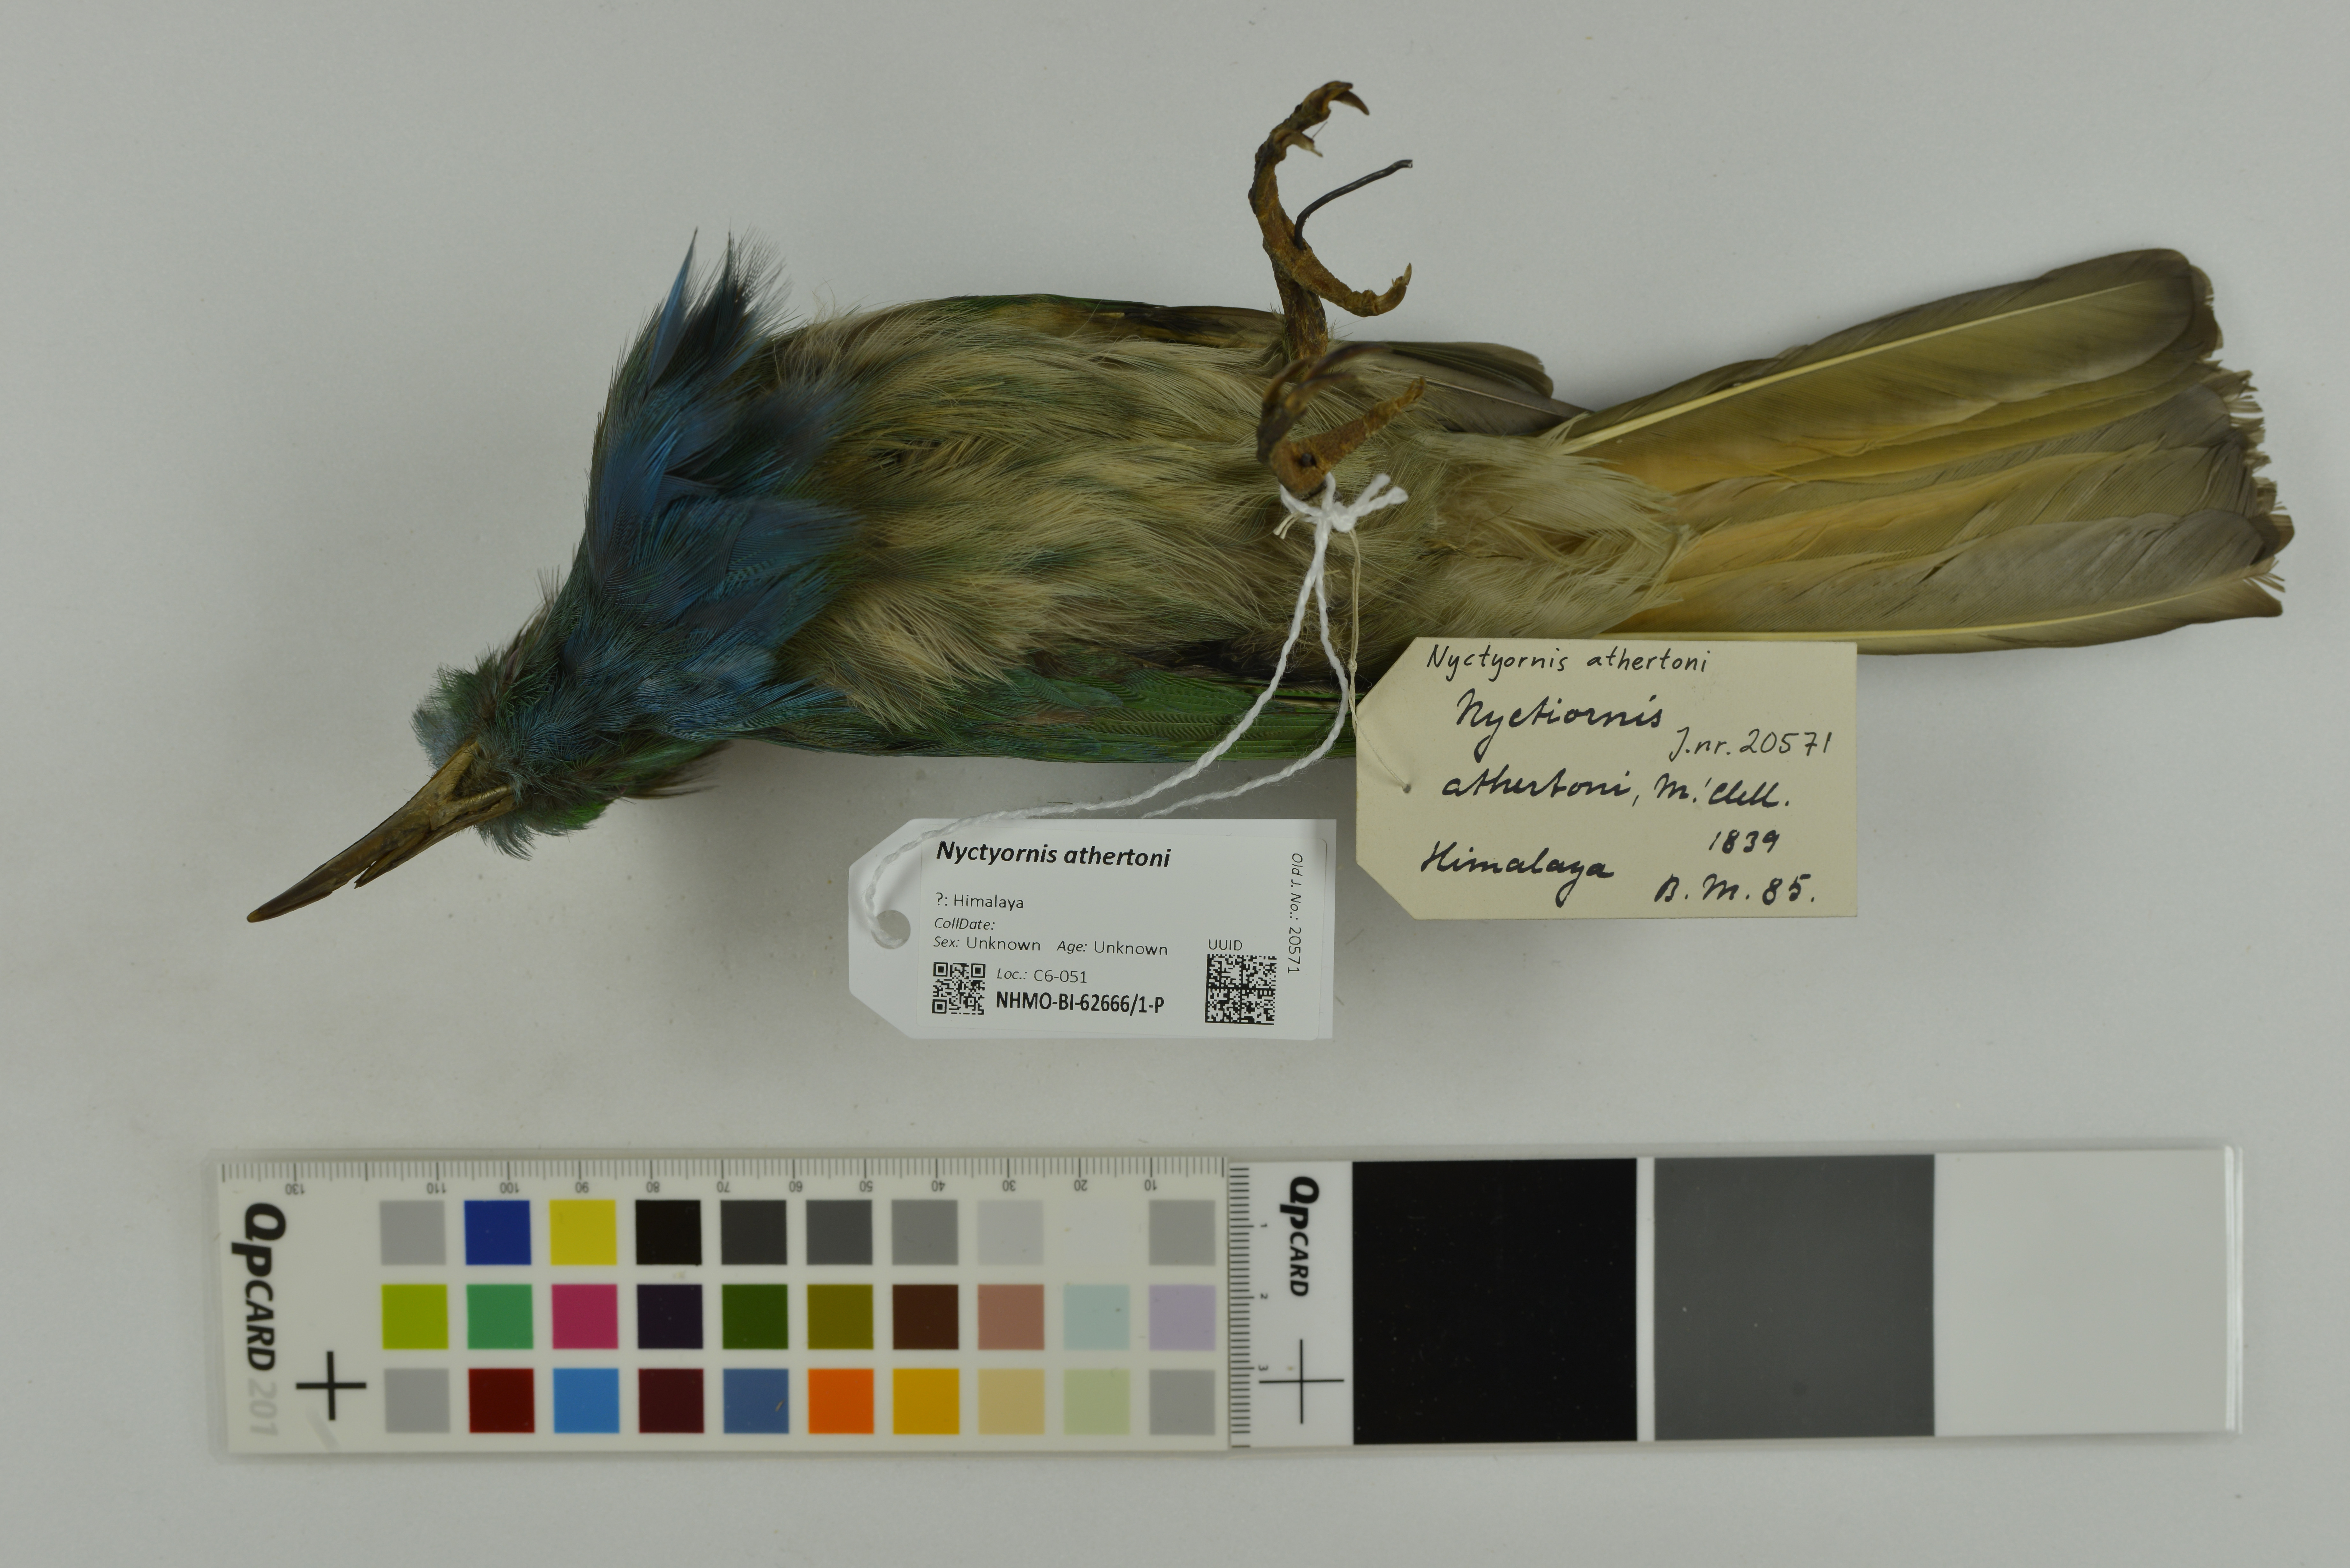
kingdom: Animalia
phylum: Chordata
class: Aves
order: Coraciiformes
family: Meropidae
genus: Nyctyornis
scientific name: Nyctyornis athertoni
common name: Blue-bearded bee-eater
